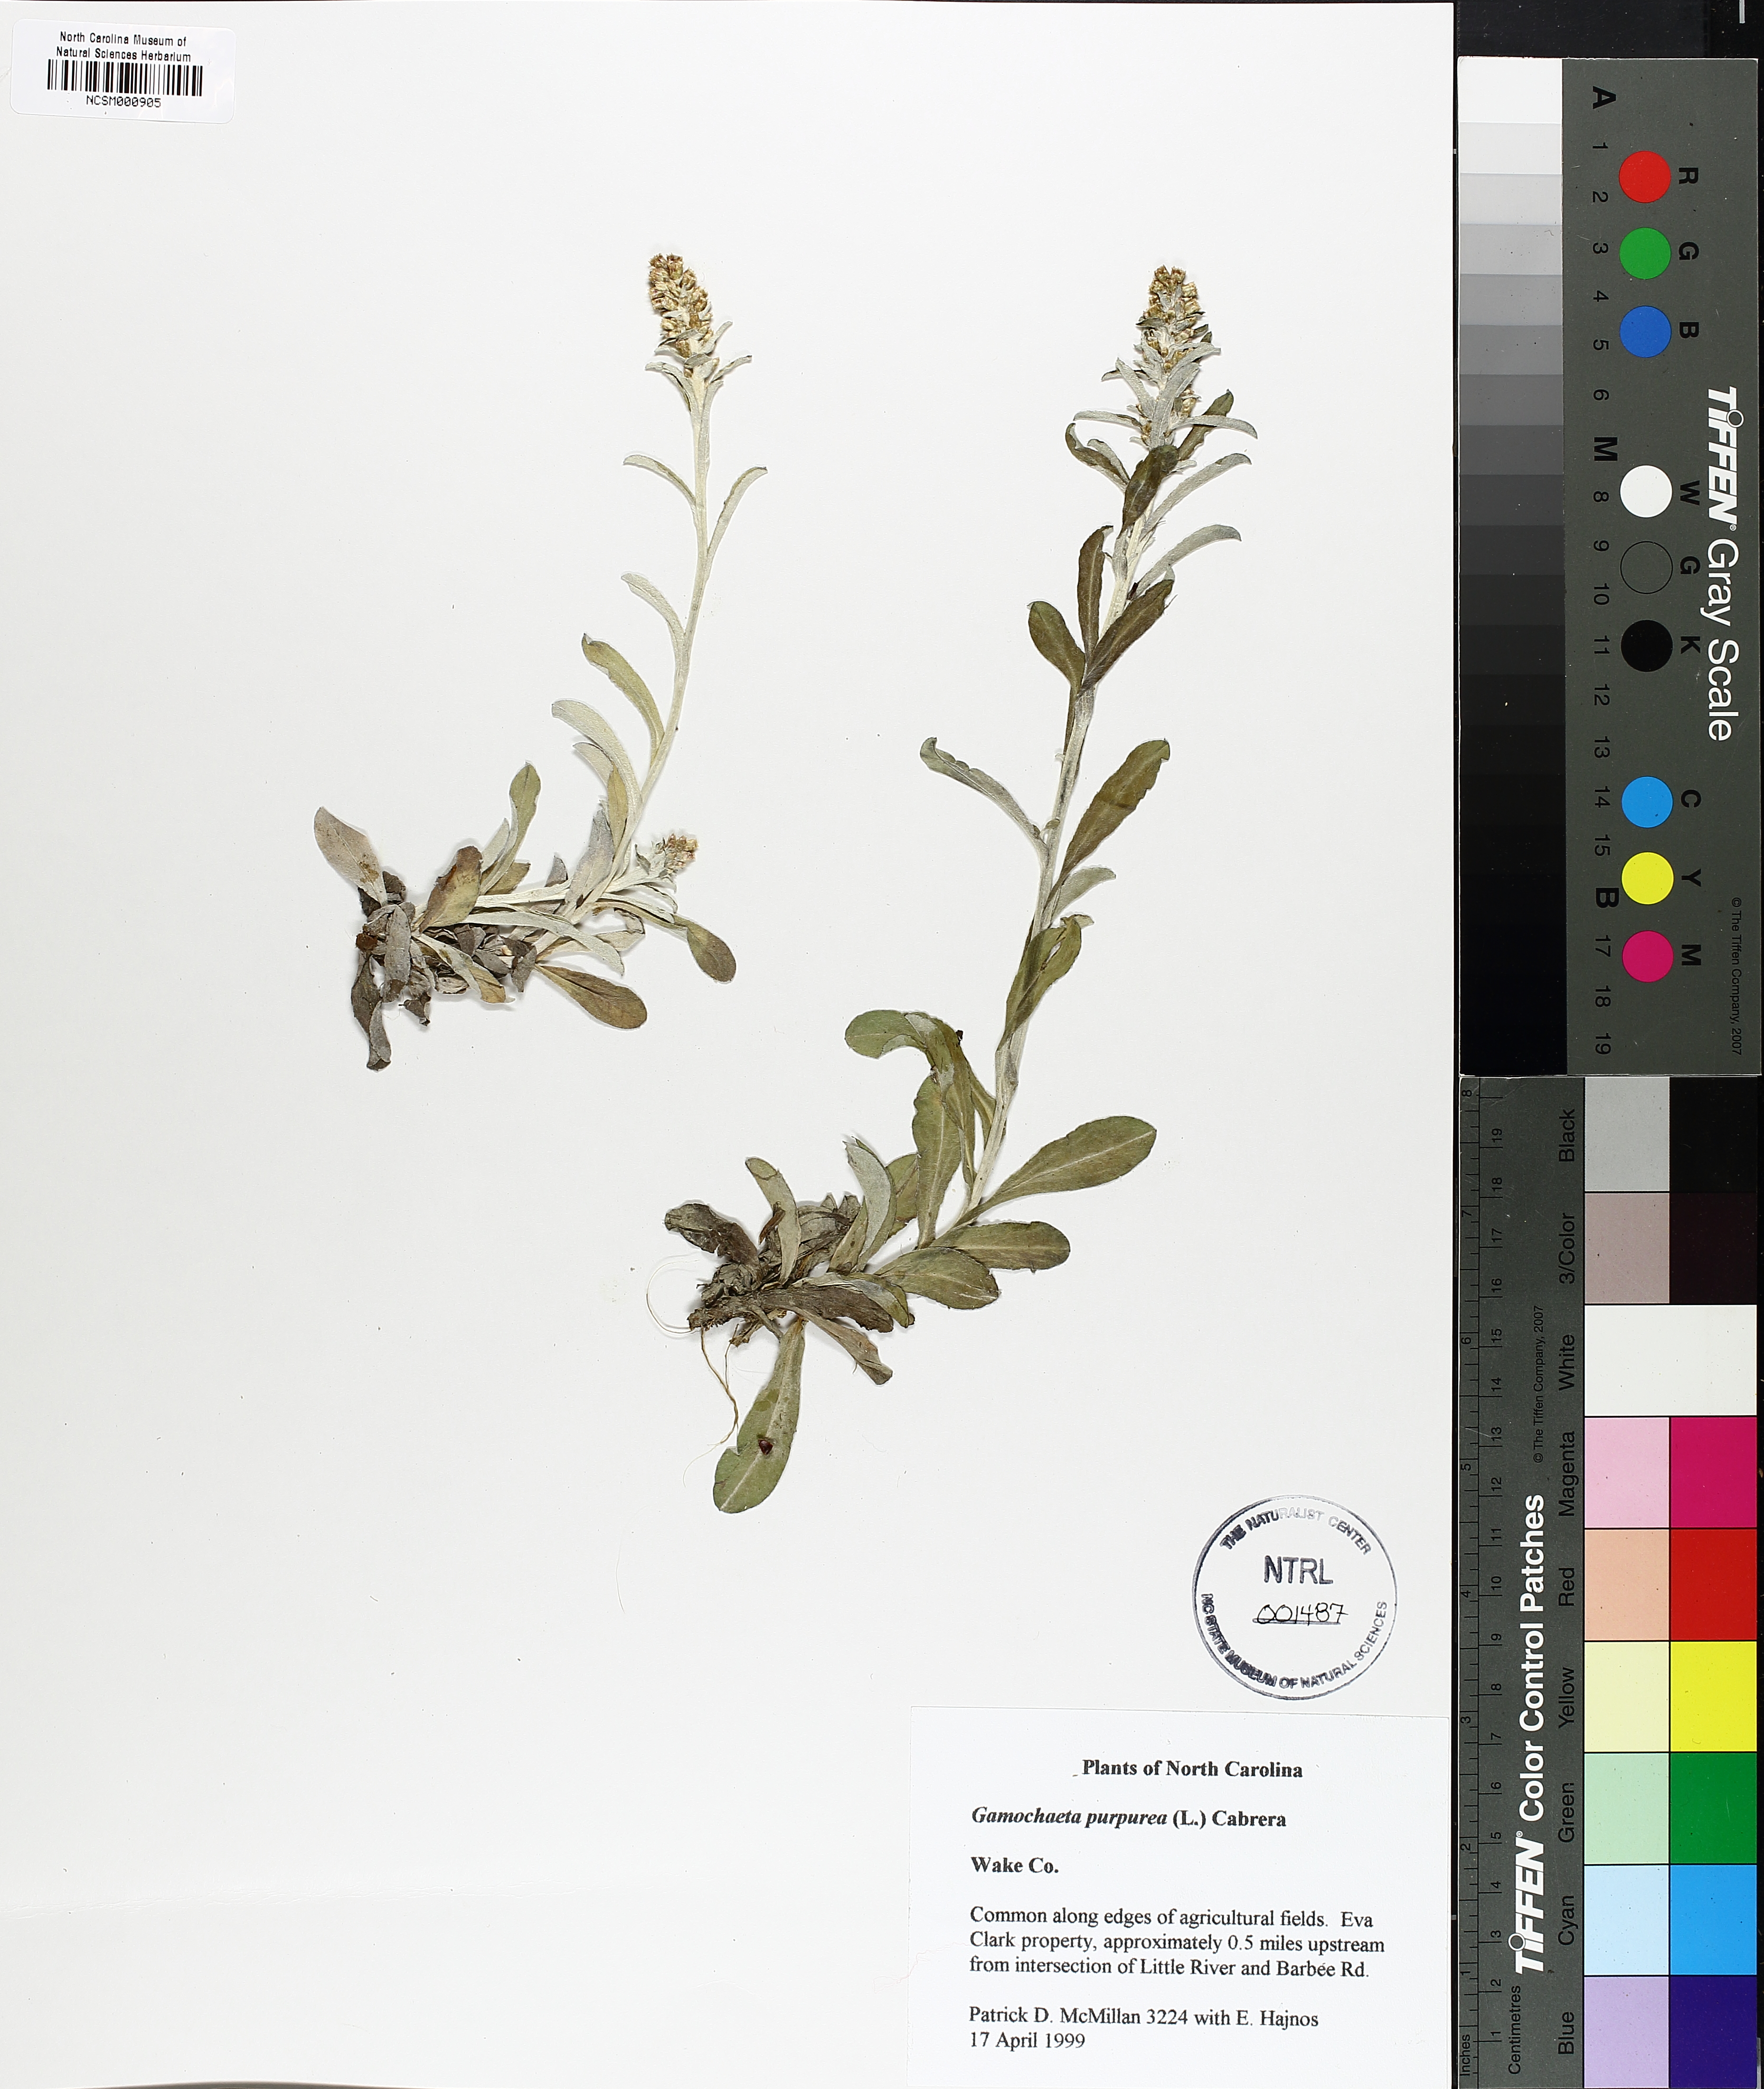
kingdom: Plantae
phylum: Tracheophyta
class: Magnoliopsida
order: Asterales
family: Asteraceae
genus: Gamochaeta
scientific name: Gamochaeta purpurea
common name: Purple cudweed
